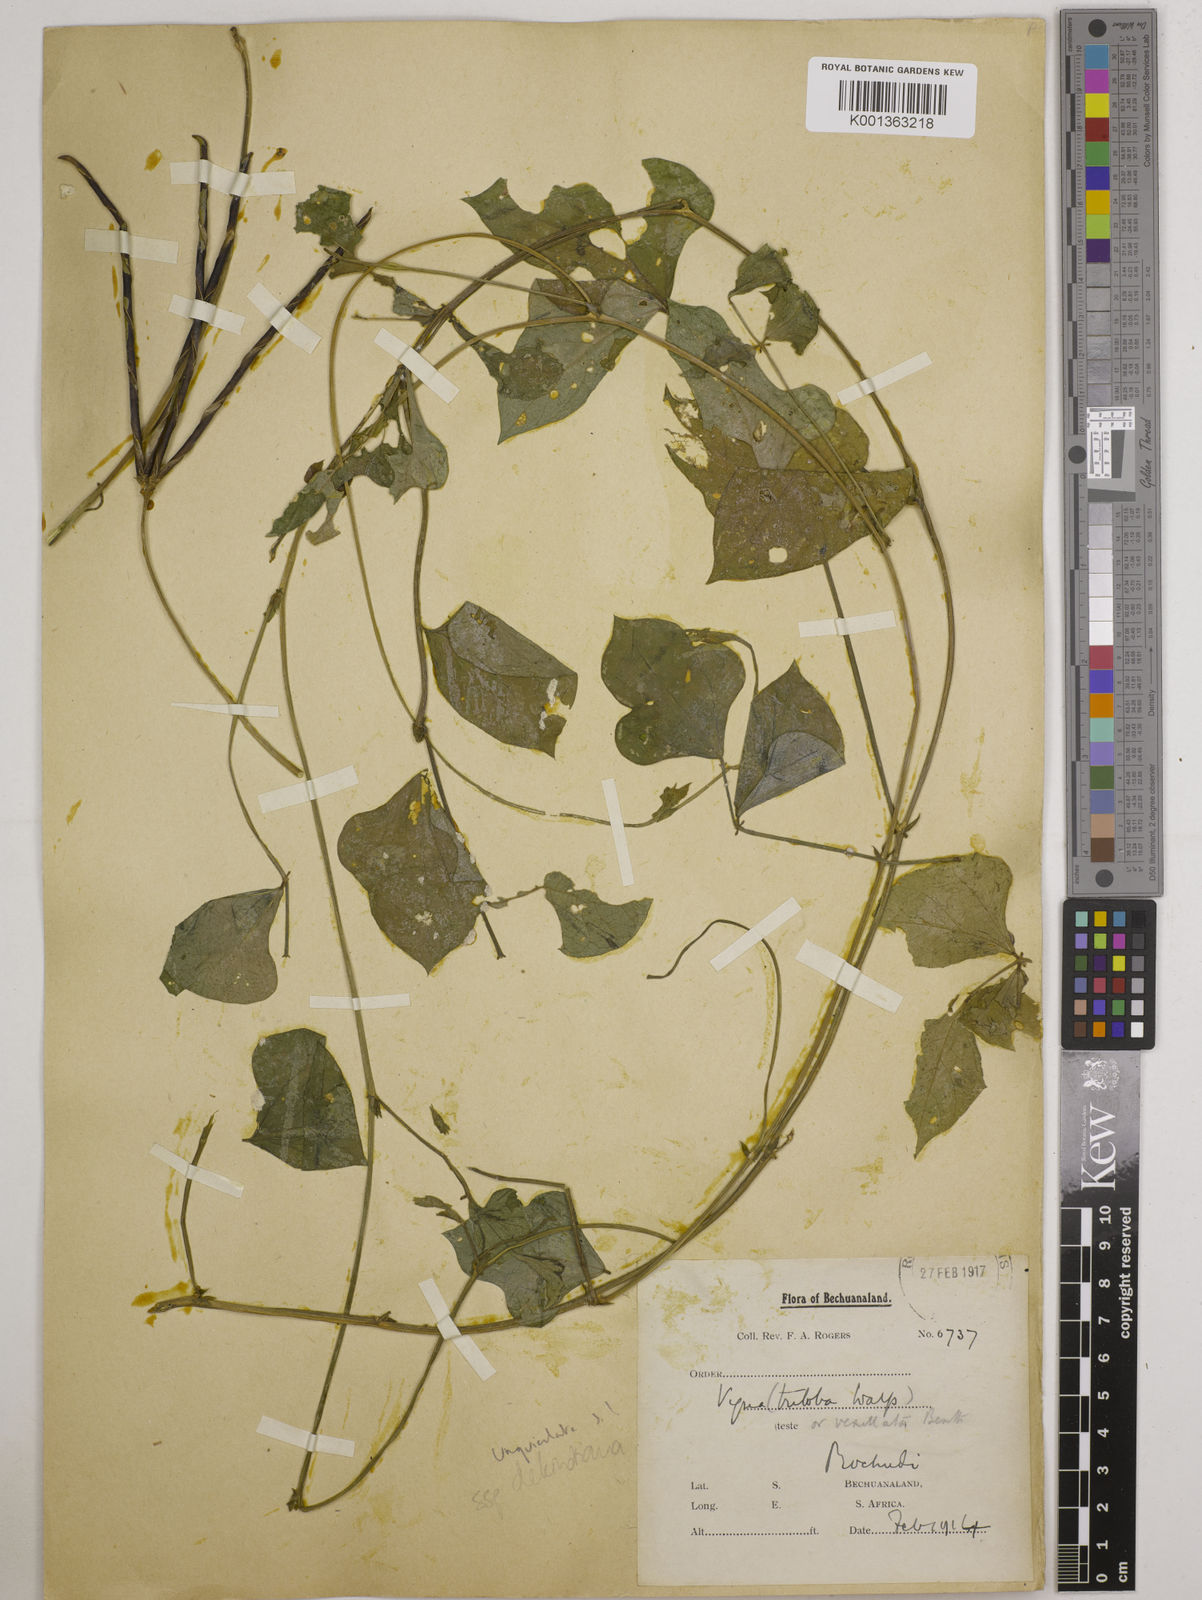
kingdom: Plantae
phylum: Tracheophyta
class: Magnoliopsida
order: Fabales
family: Fabaceae
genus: Vigna
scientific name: Vigna unguiculata
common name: Cowpea
